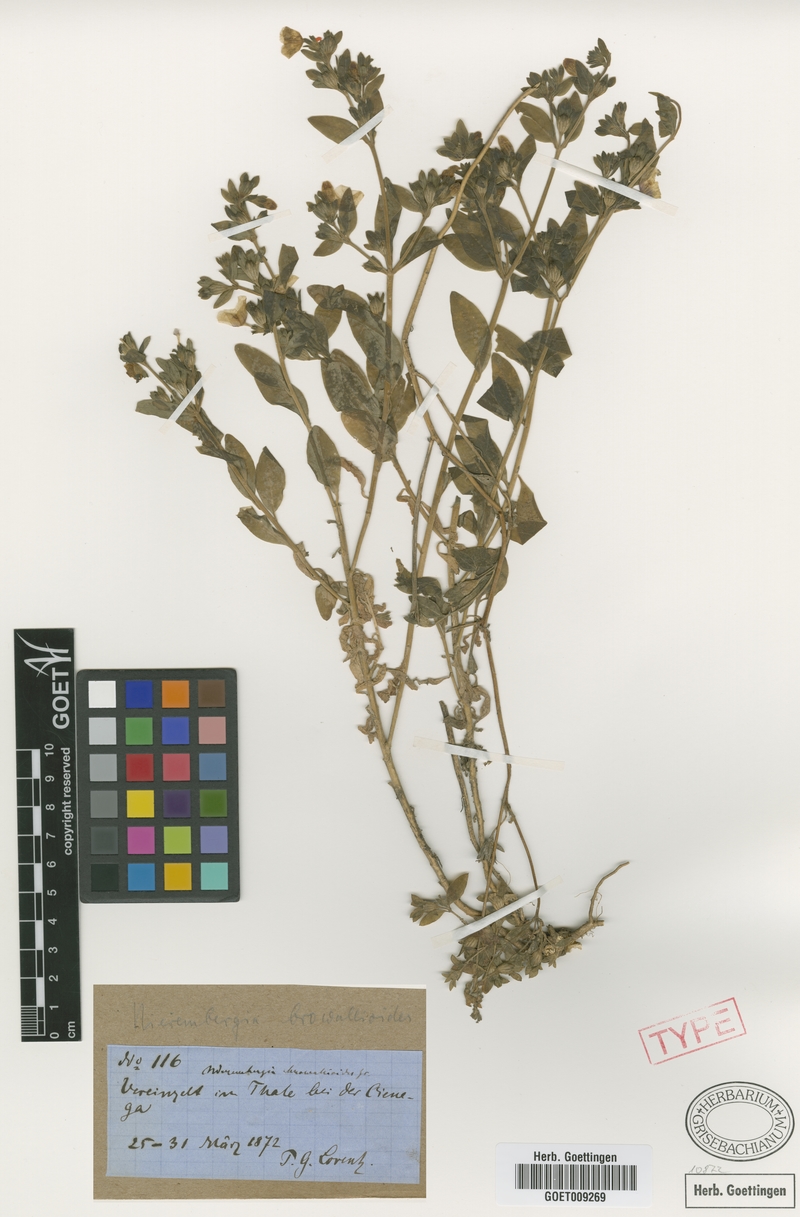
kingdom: Plantae
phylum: Tracheophyta
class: Magnoliopsida
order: Solanales
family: Solanaceae
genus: Nierembergia
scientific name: Nierembergia browallioides
